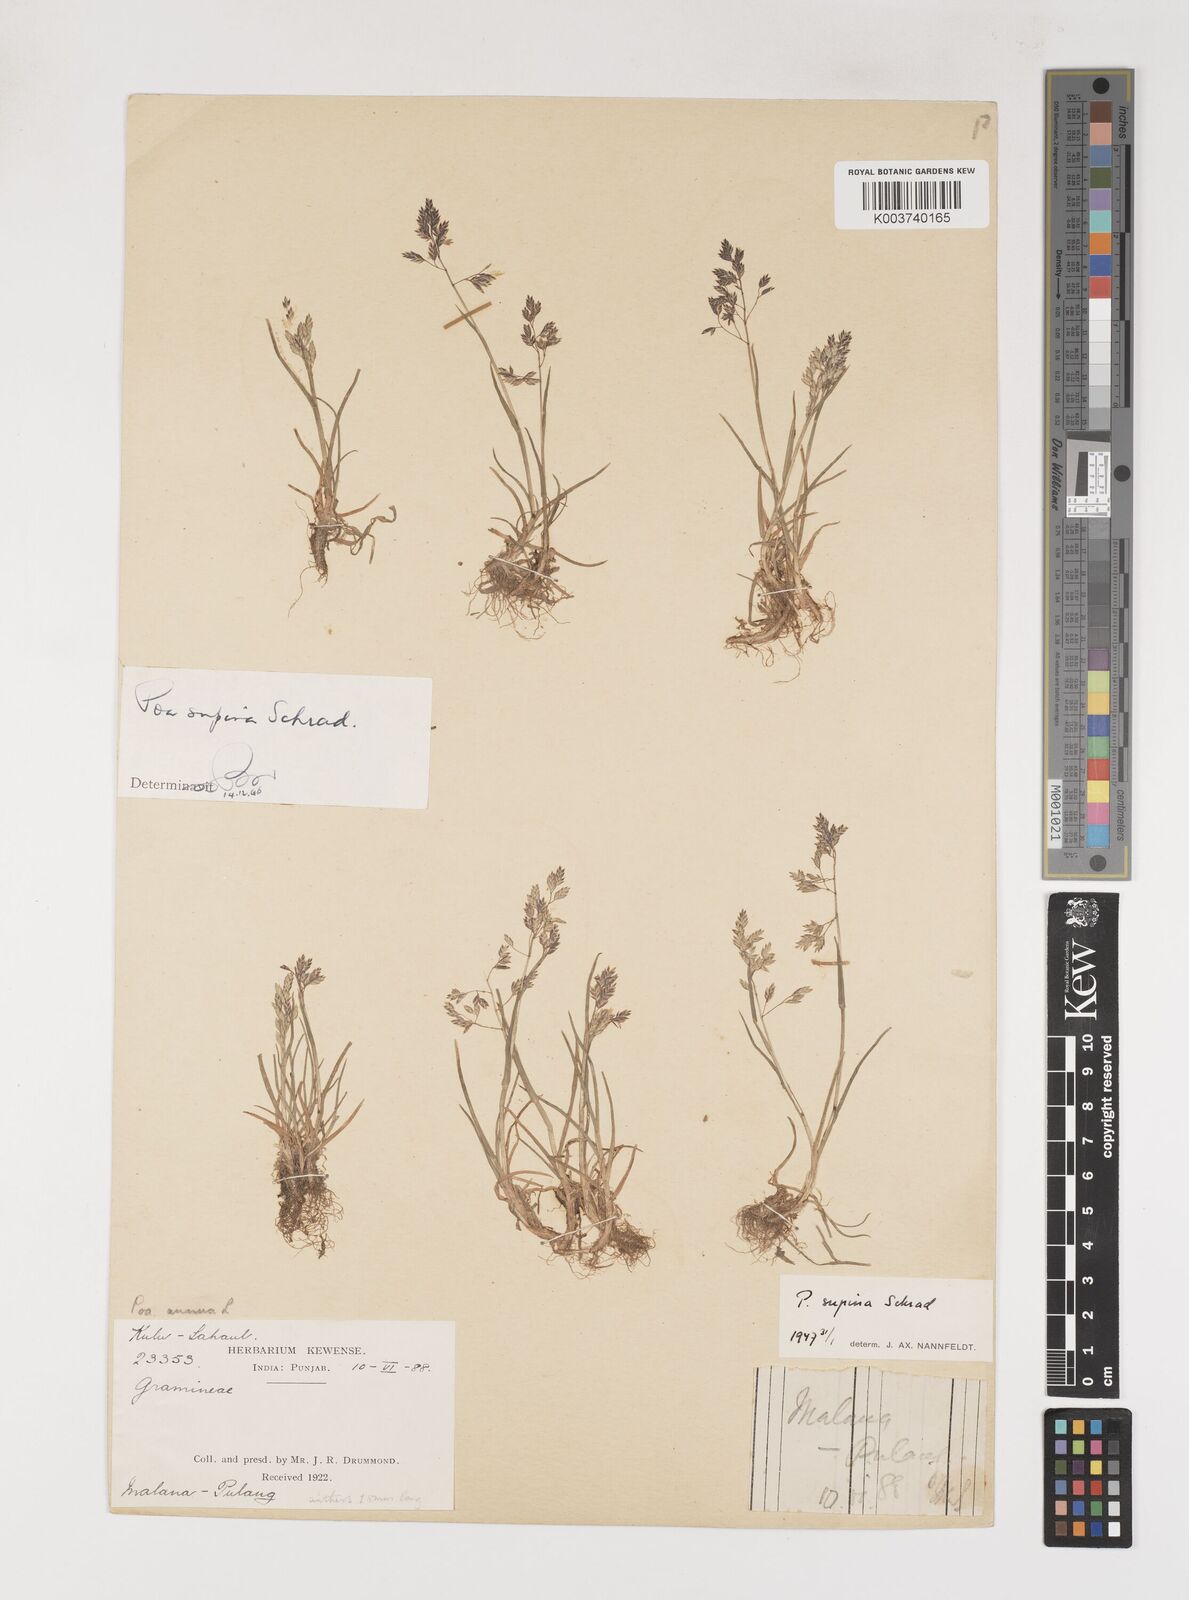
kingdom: Plantae
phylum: Tracheophyta
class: Liliopsida
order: Poales
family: Poaceae
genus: Poa
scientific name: Poa supina
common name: Supina bluegrass
